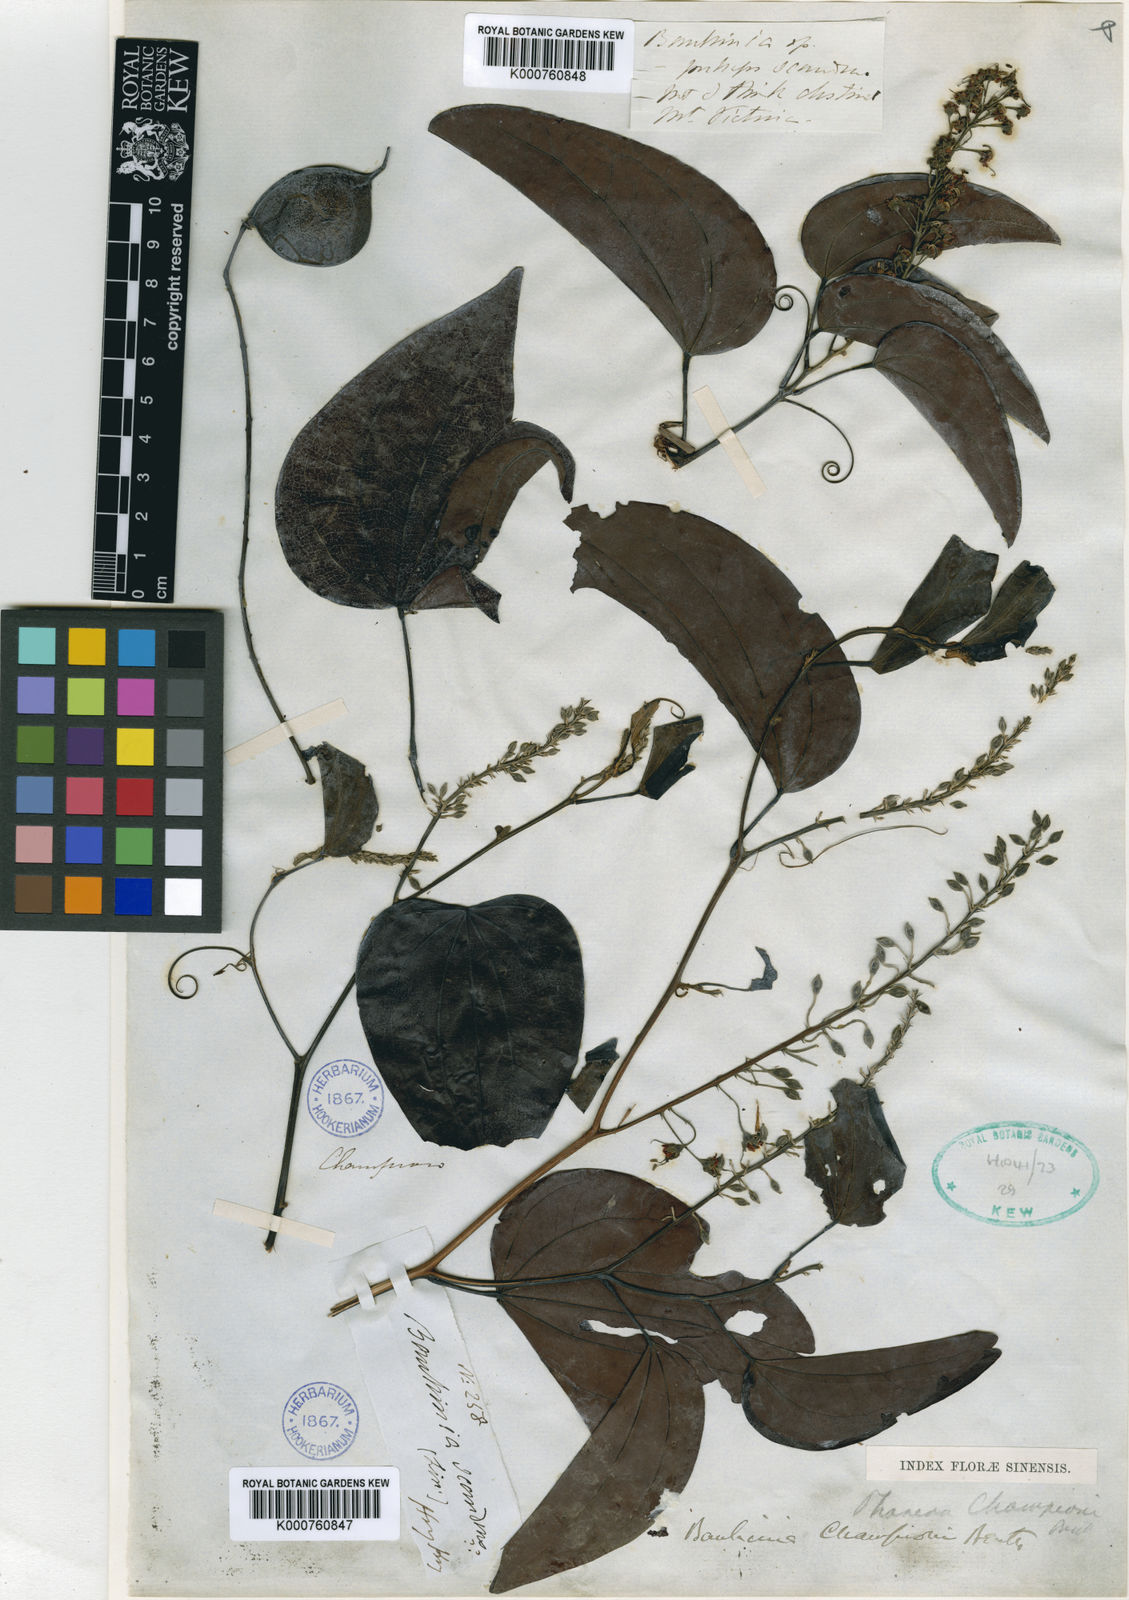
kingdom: Plantae
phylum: Tracheophyta
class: Magnoliopsida
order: Fabales
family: Fabaceae
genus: Phanera
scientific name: Phanera championii
